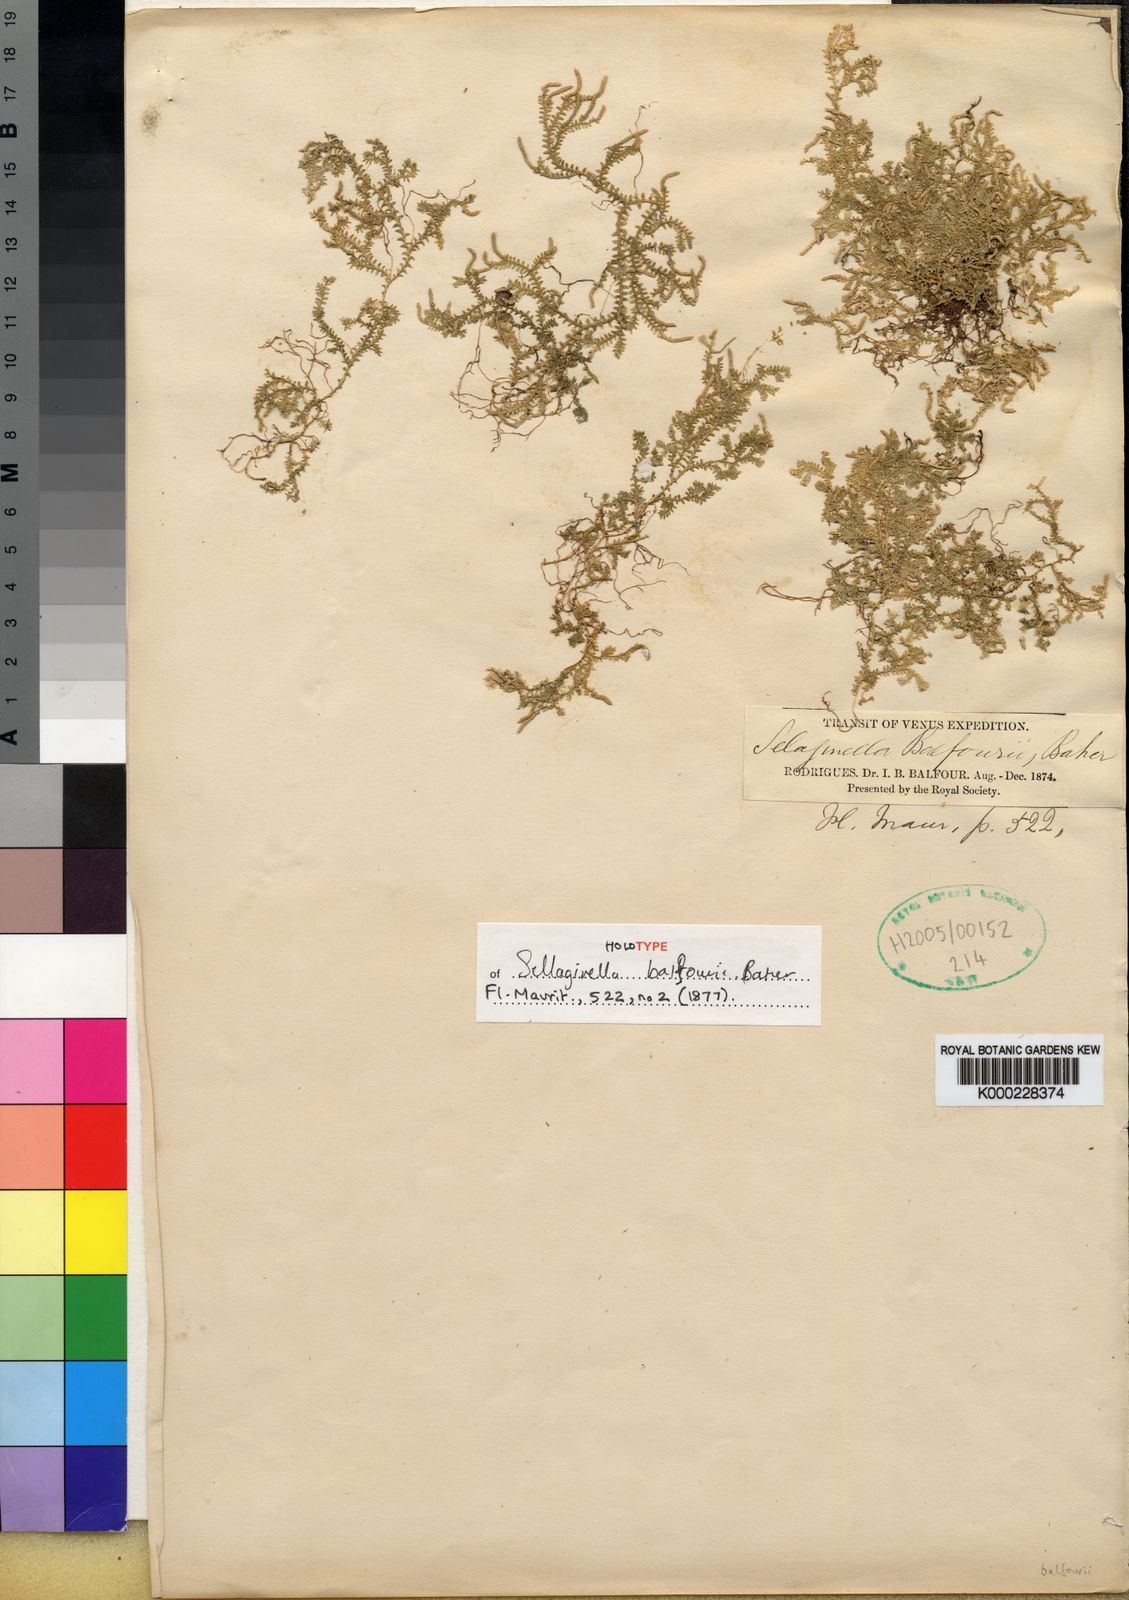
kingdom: Plantae
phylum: Tracheophyta
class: Lycopodiopsida
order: Selaginellales
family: Selaginellaceae
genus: Selaginella
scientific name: Selaginella balfourii
